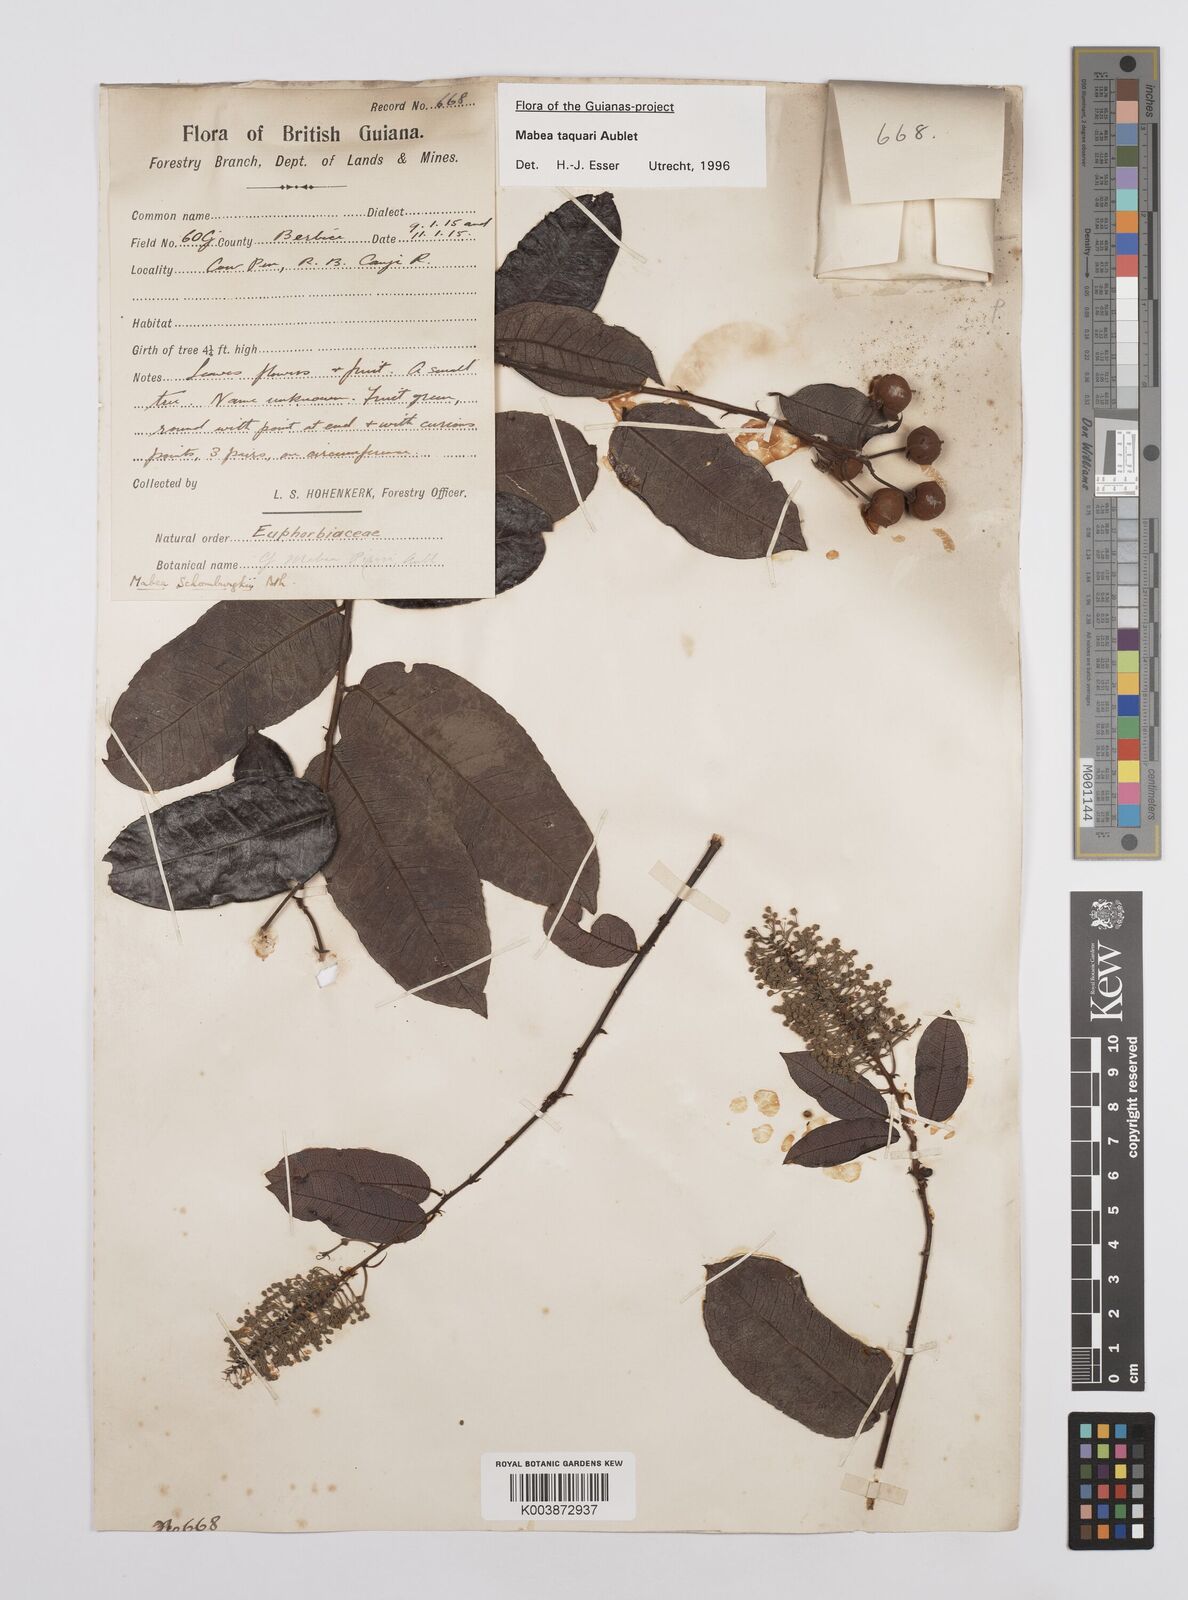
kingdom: Plantae
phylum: Tracheophyta
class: Magnoliopsida
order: Malpighiales
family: Euphorbiaceae
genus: Mabea
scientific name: Mabea taquari
